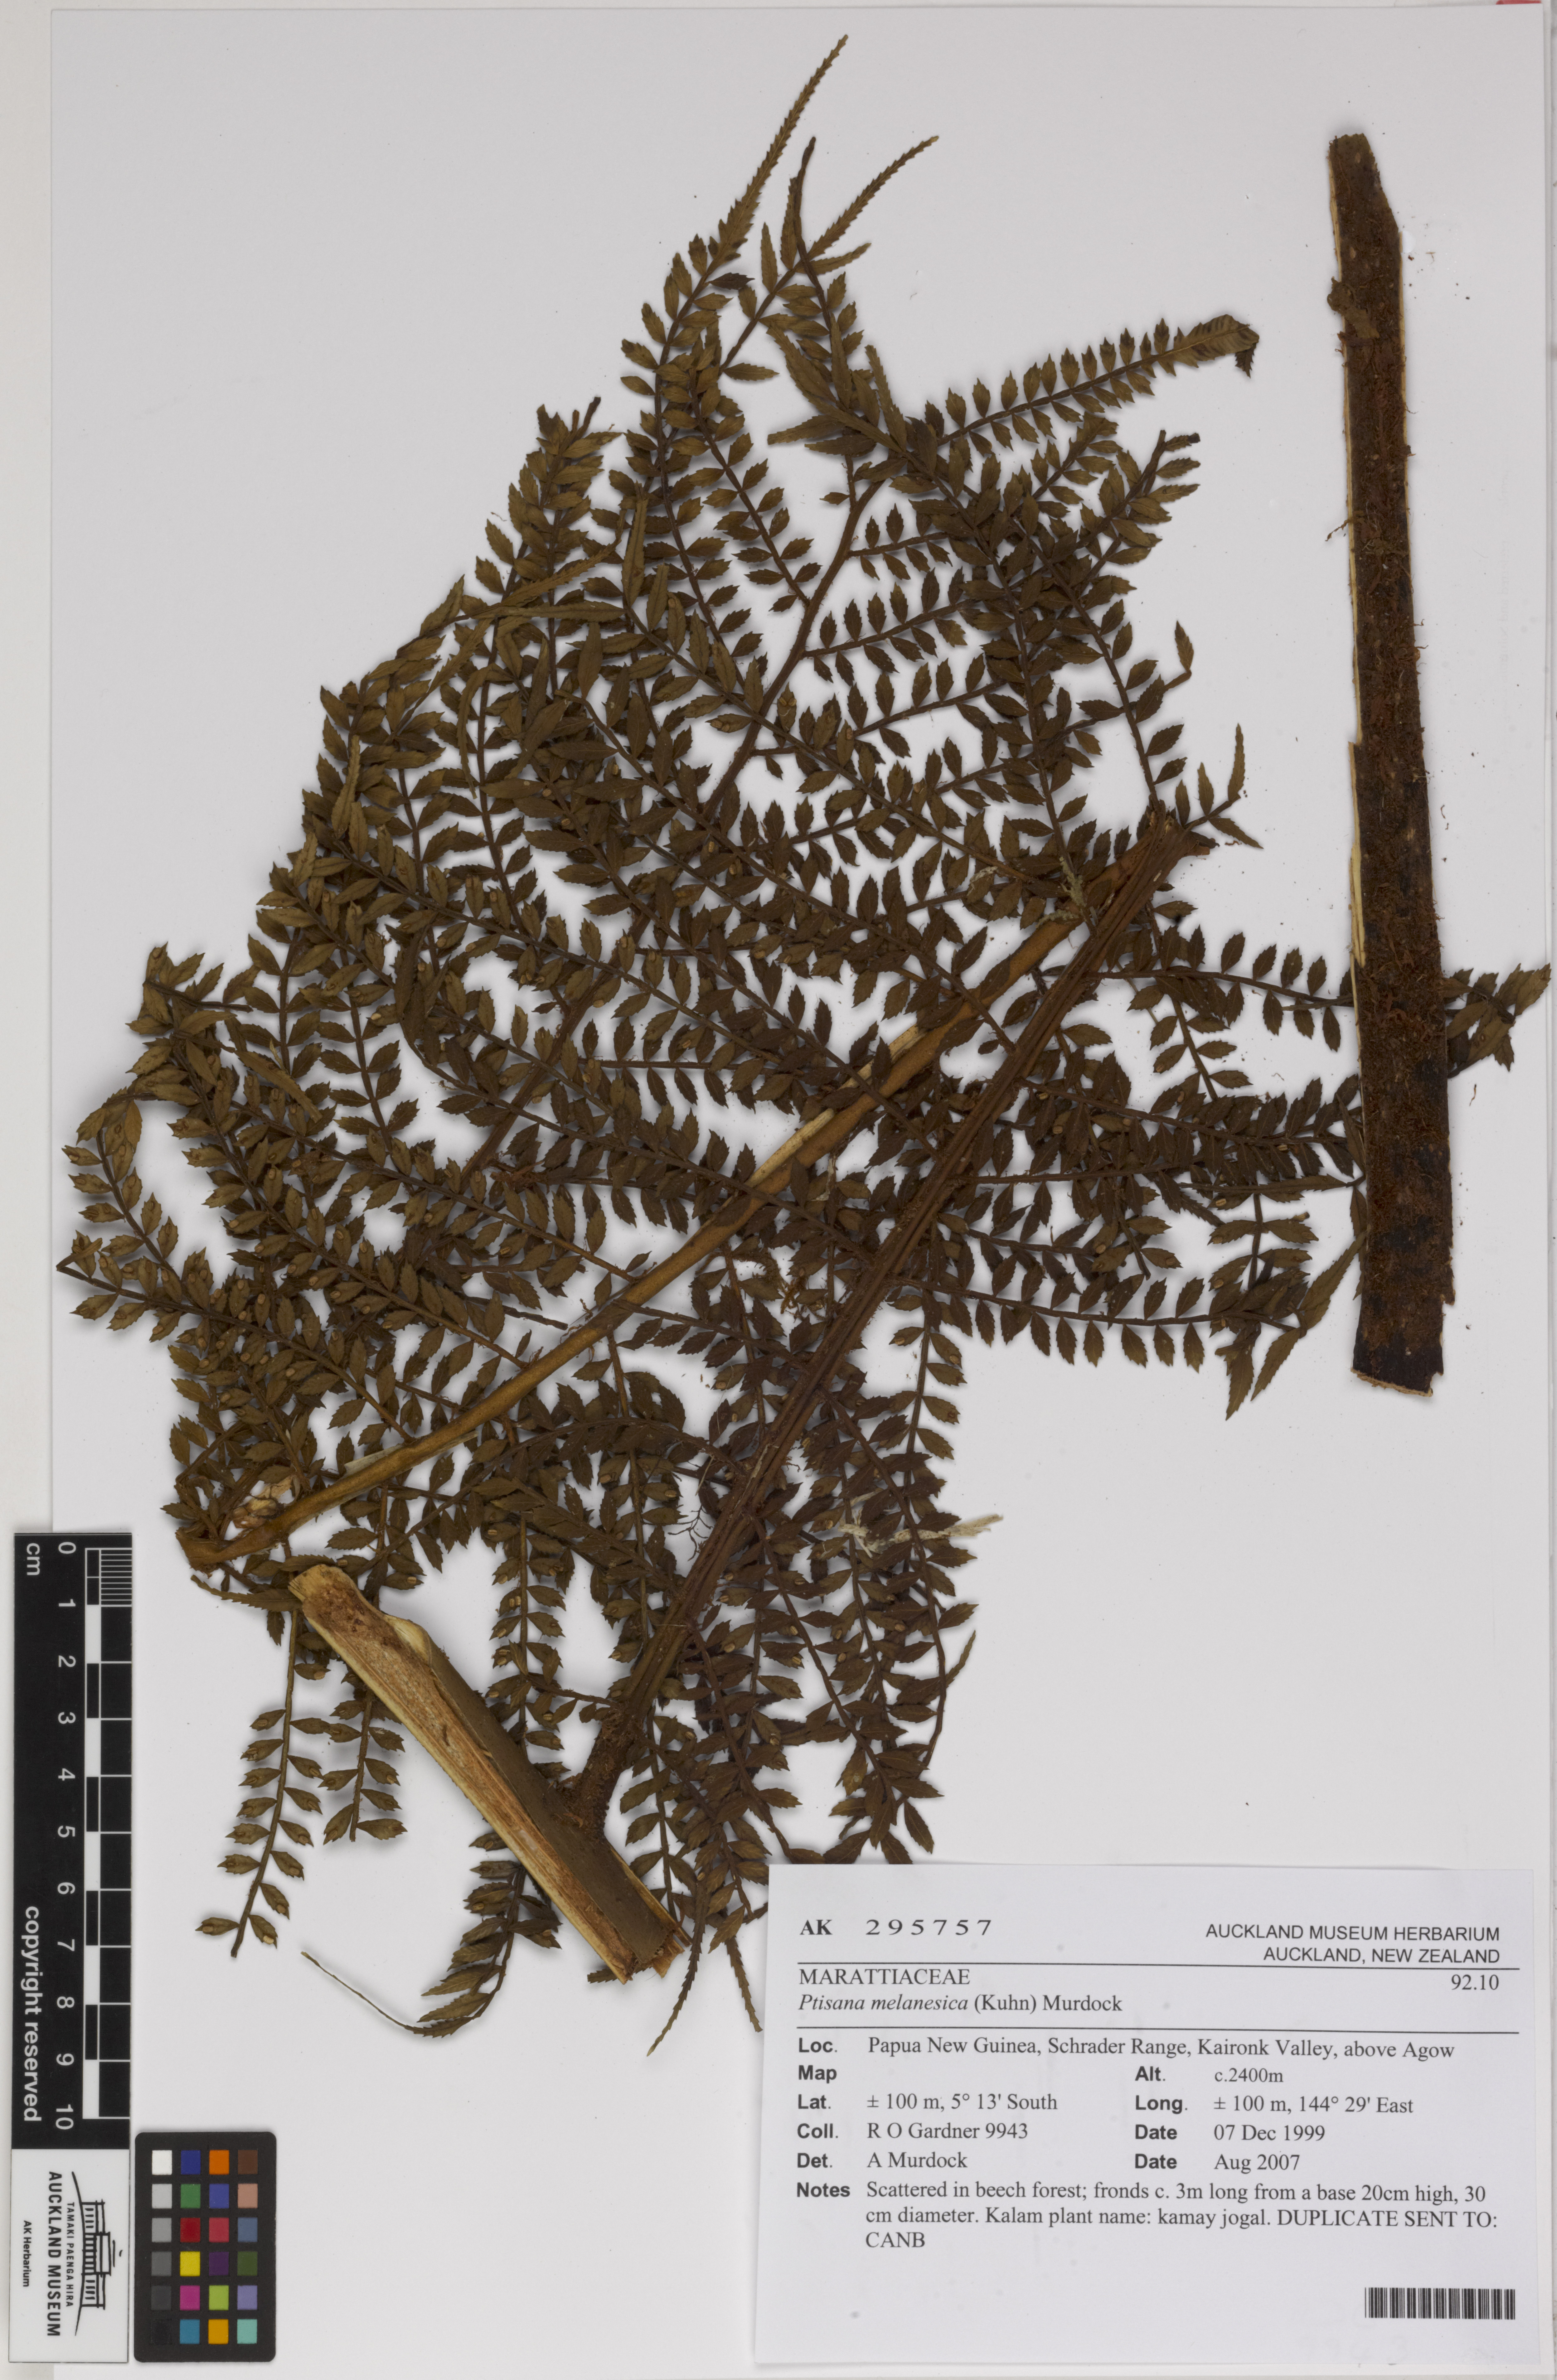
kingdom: Plantae
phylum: Tracheophyta
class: Polypodiopsida
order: Marattiales
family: Marattiaceae
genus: Ptisana
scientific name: Ptisana melanesica
